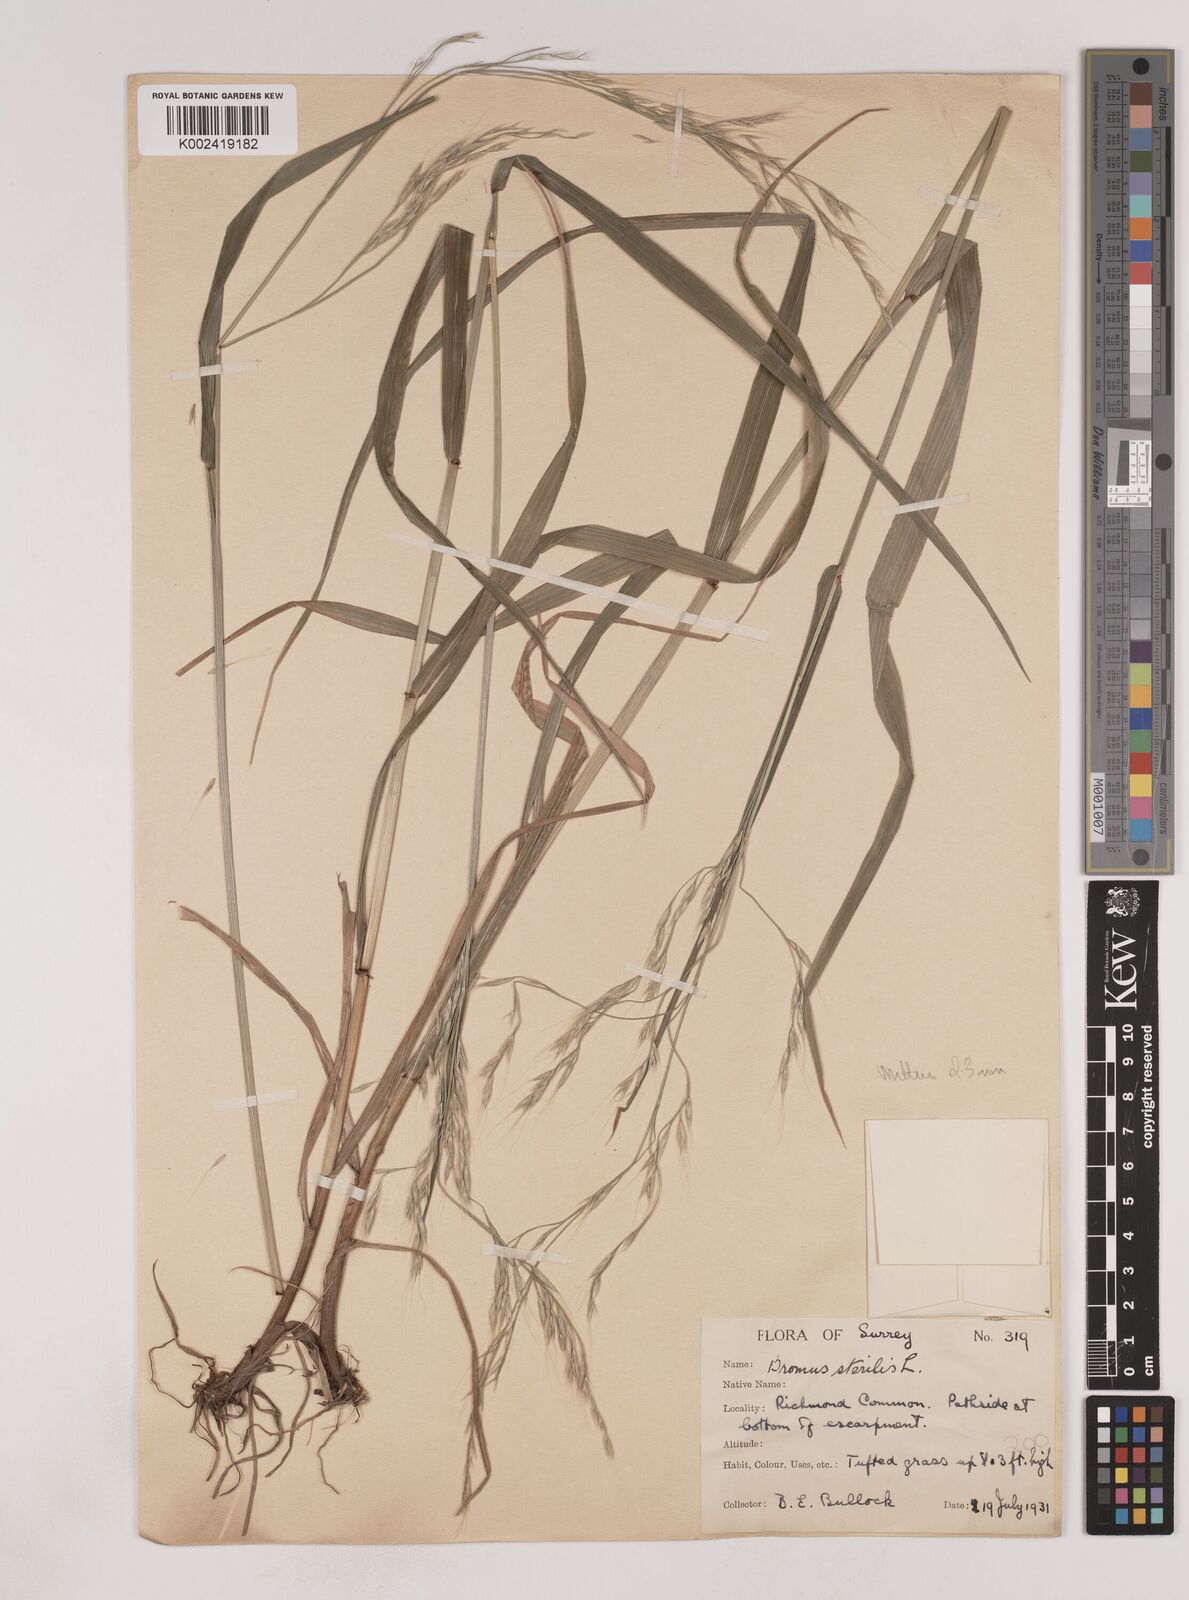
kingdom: Plantae
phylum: Tracheophyta
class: Liliopsida
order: Poales
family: Poaceae
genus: Lolium
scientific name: Lolium giganteum
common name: Giant fescue
